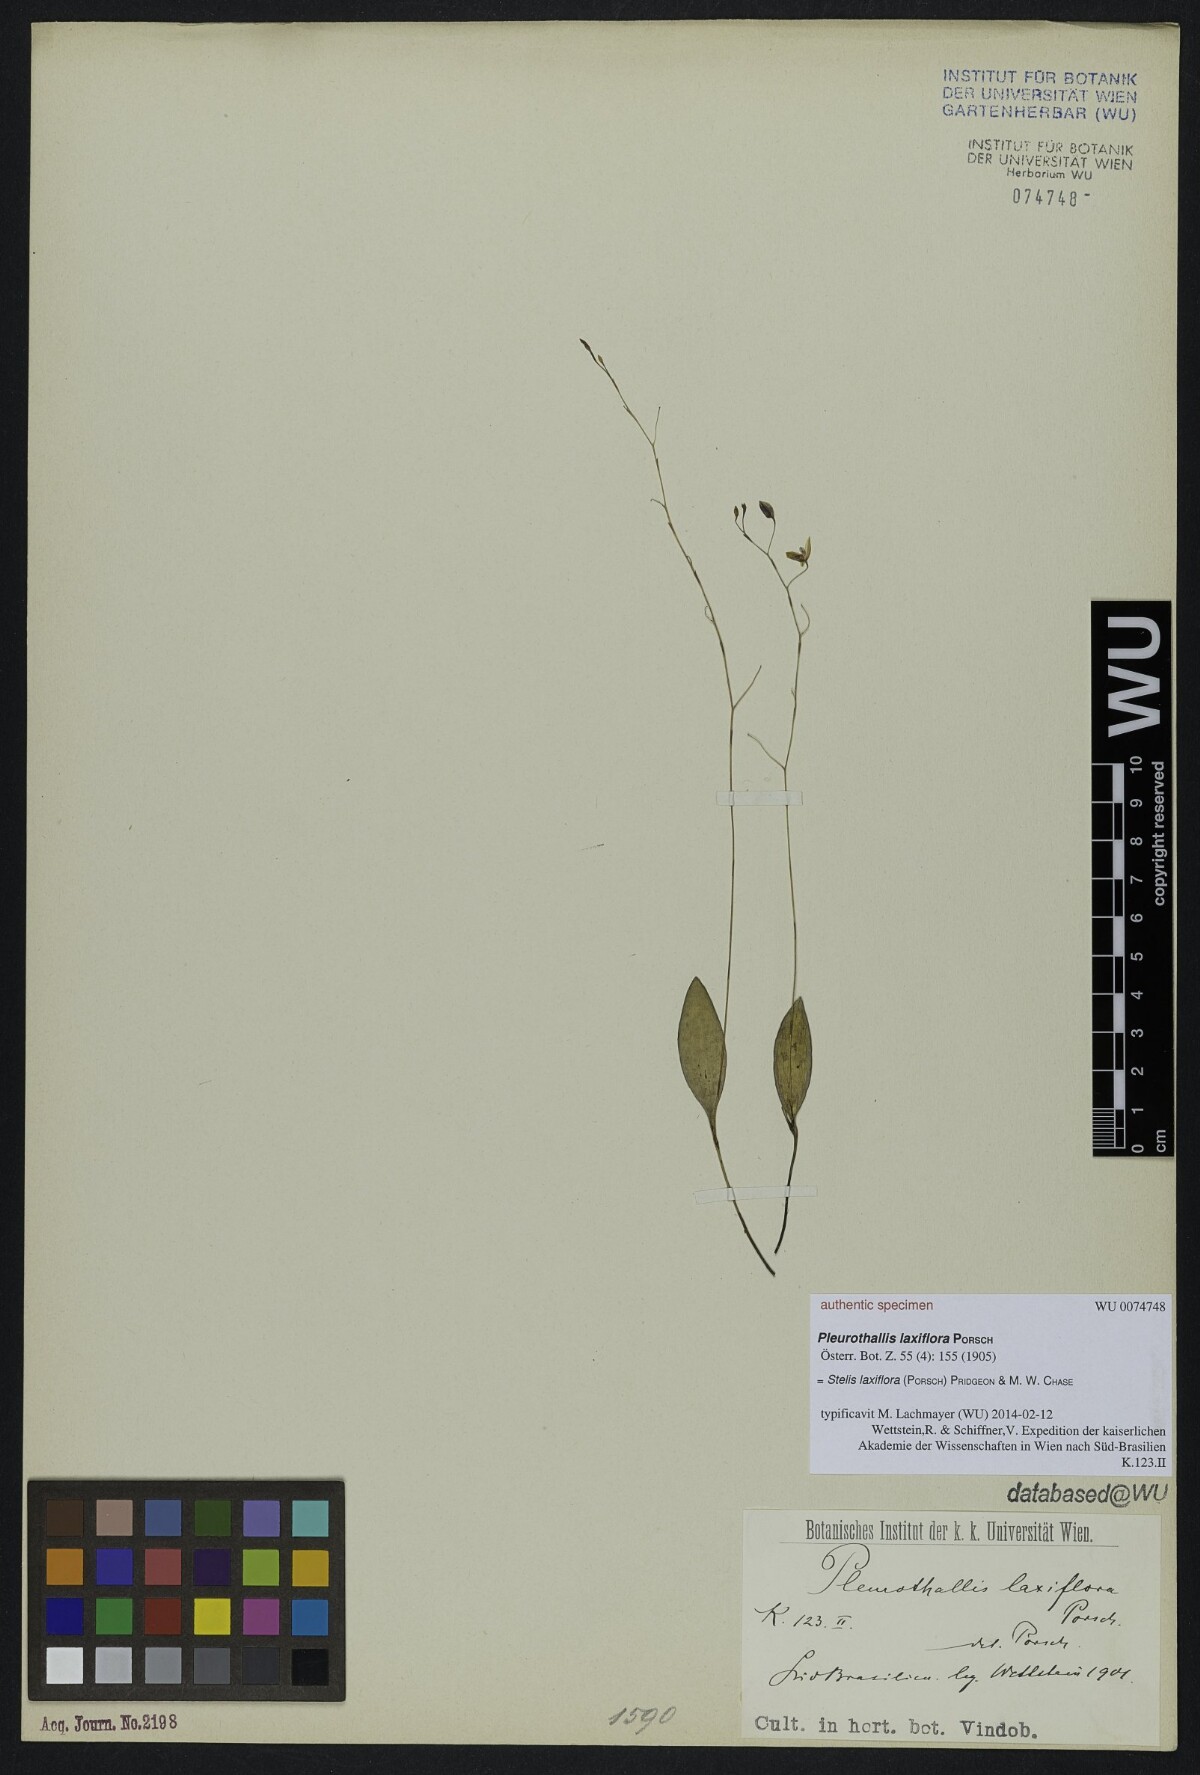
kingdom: Plantae
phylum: Tracheophyta
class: Liliopsida
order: Asparagales
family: Orchidaceae
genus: Pabstiella
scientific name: Pabstiella laxiflora
